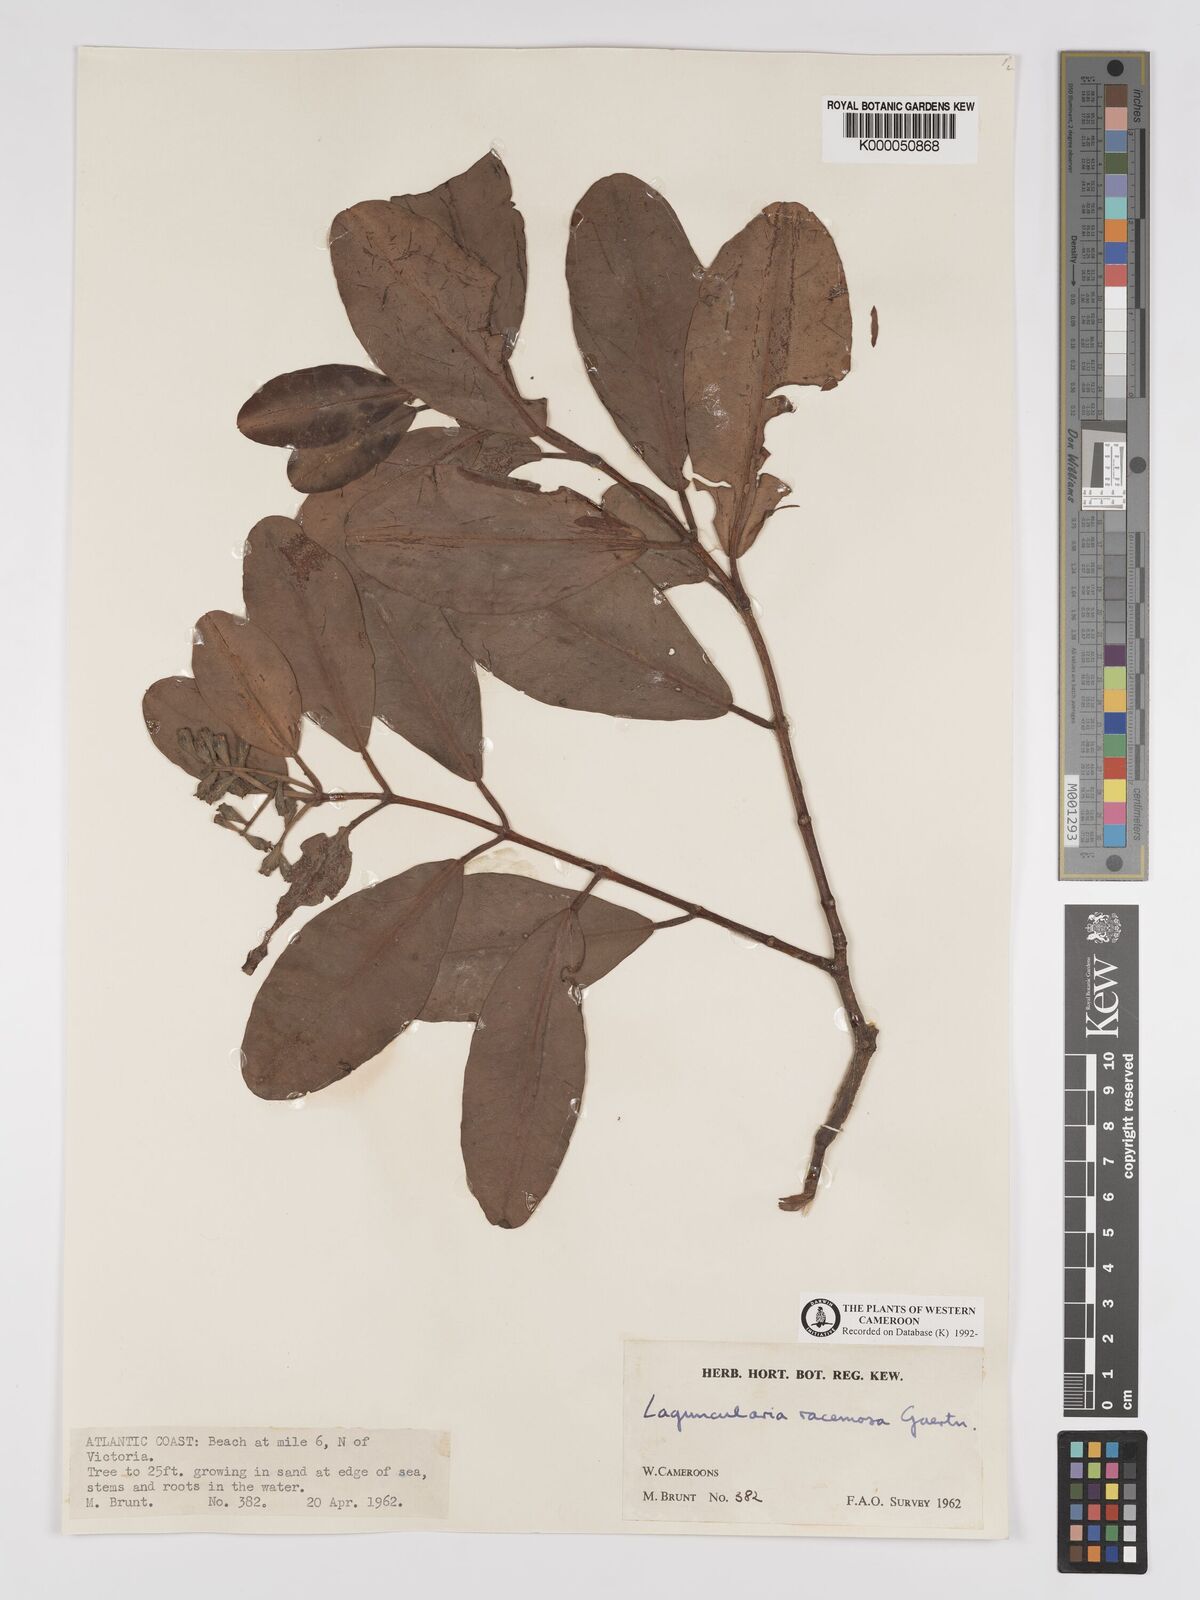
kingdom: Plantae
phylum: Tracheophyta
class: Magnoliopsida
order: Myrtales
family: Combretaceae
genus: Laguncularia
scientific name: Laguncularia racemosa
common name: White mangrove
